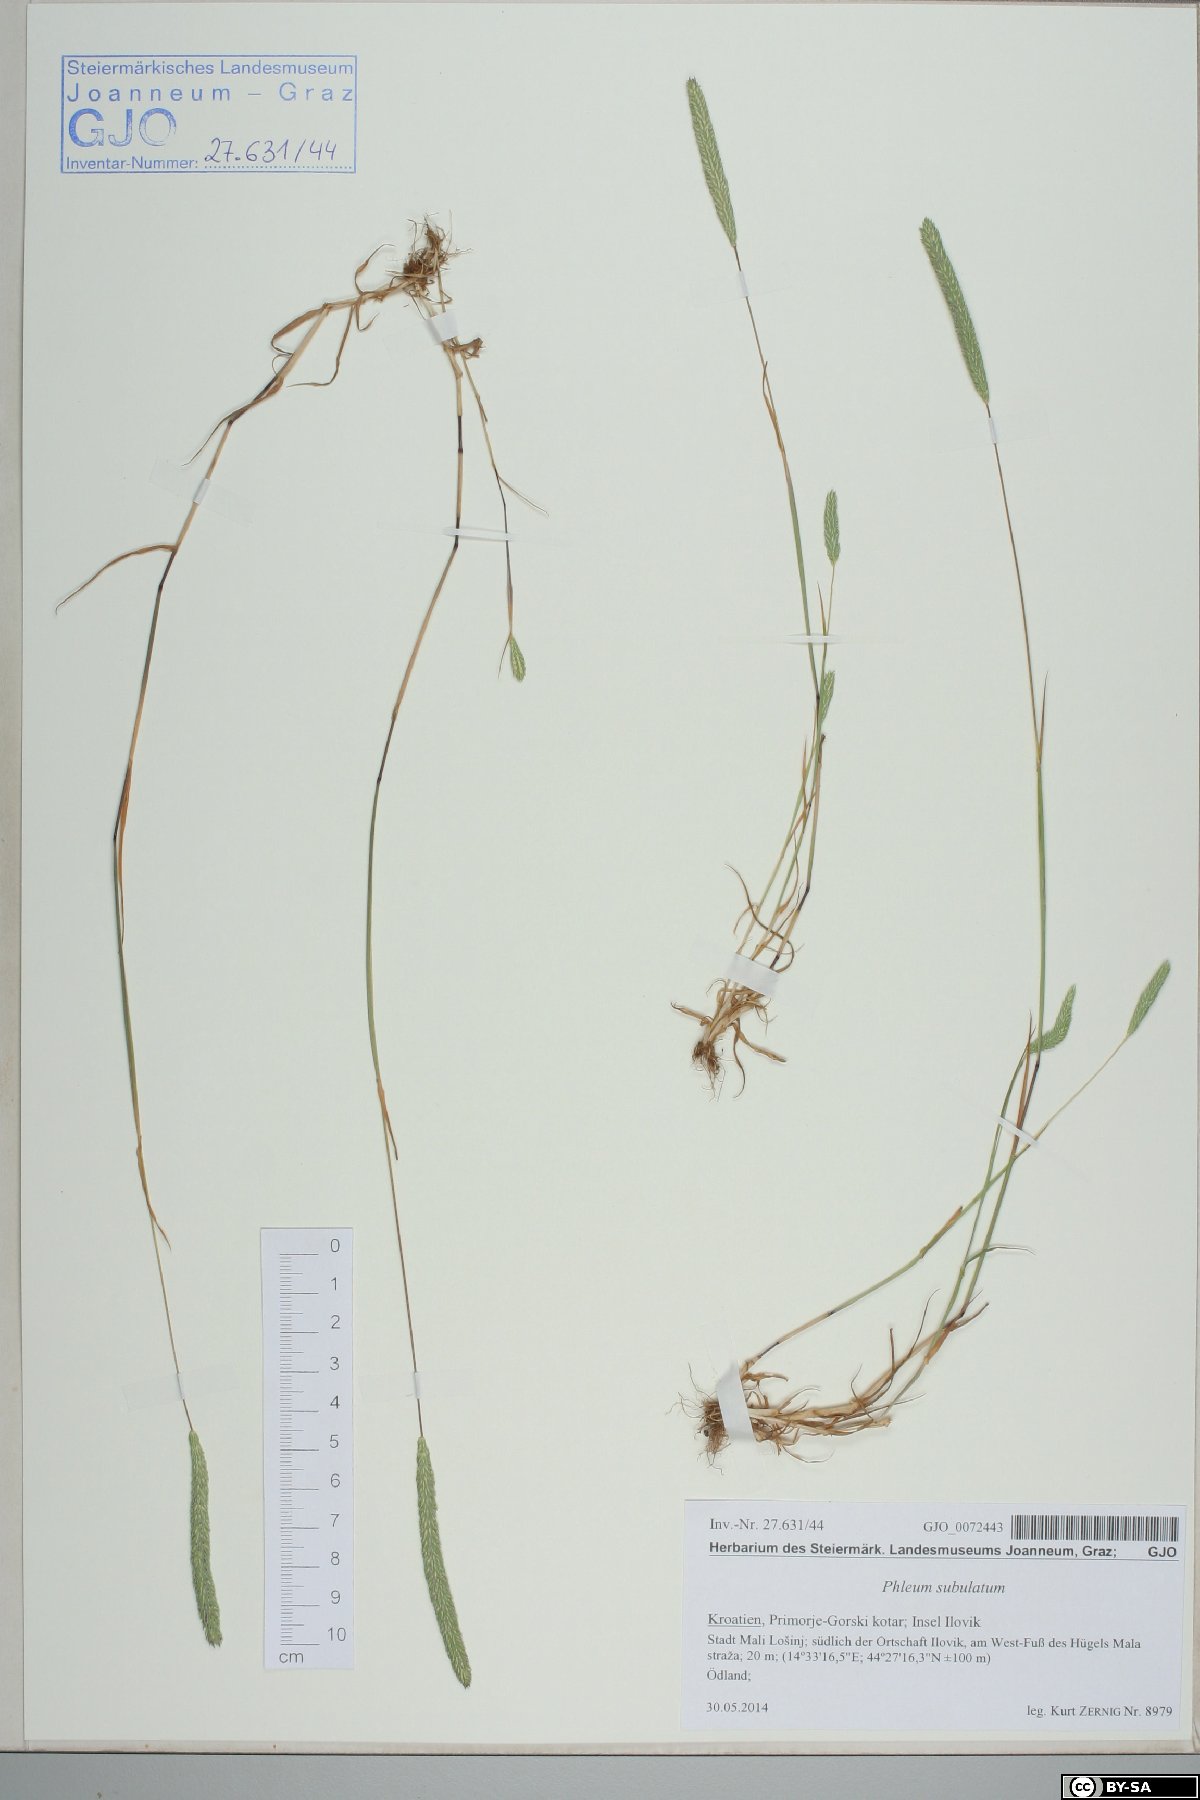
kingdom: Plantae
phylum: Tracheophyta
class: Liliopsida
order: Poales
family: Poaceae
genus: Phleum
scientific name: Phleum subulatum
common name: Italian timothy
